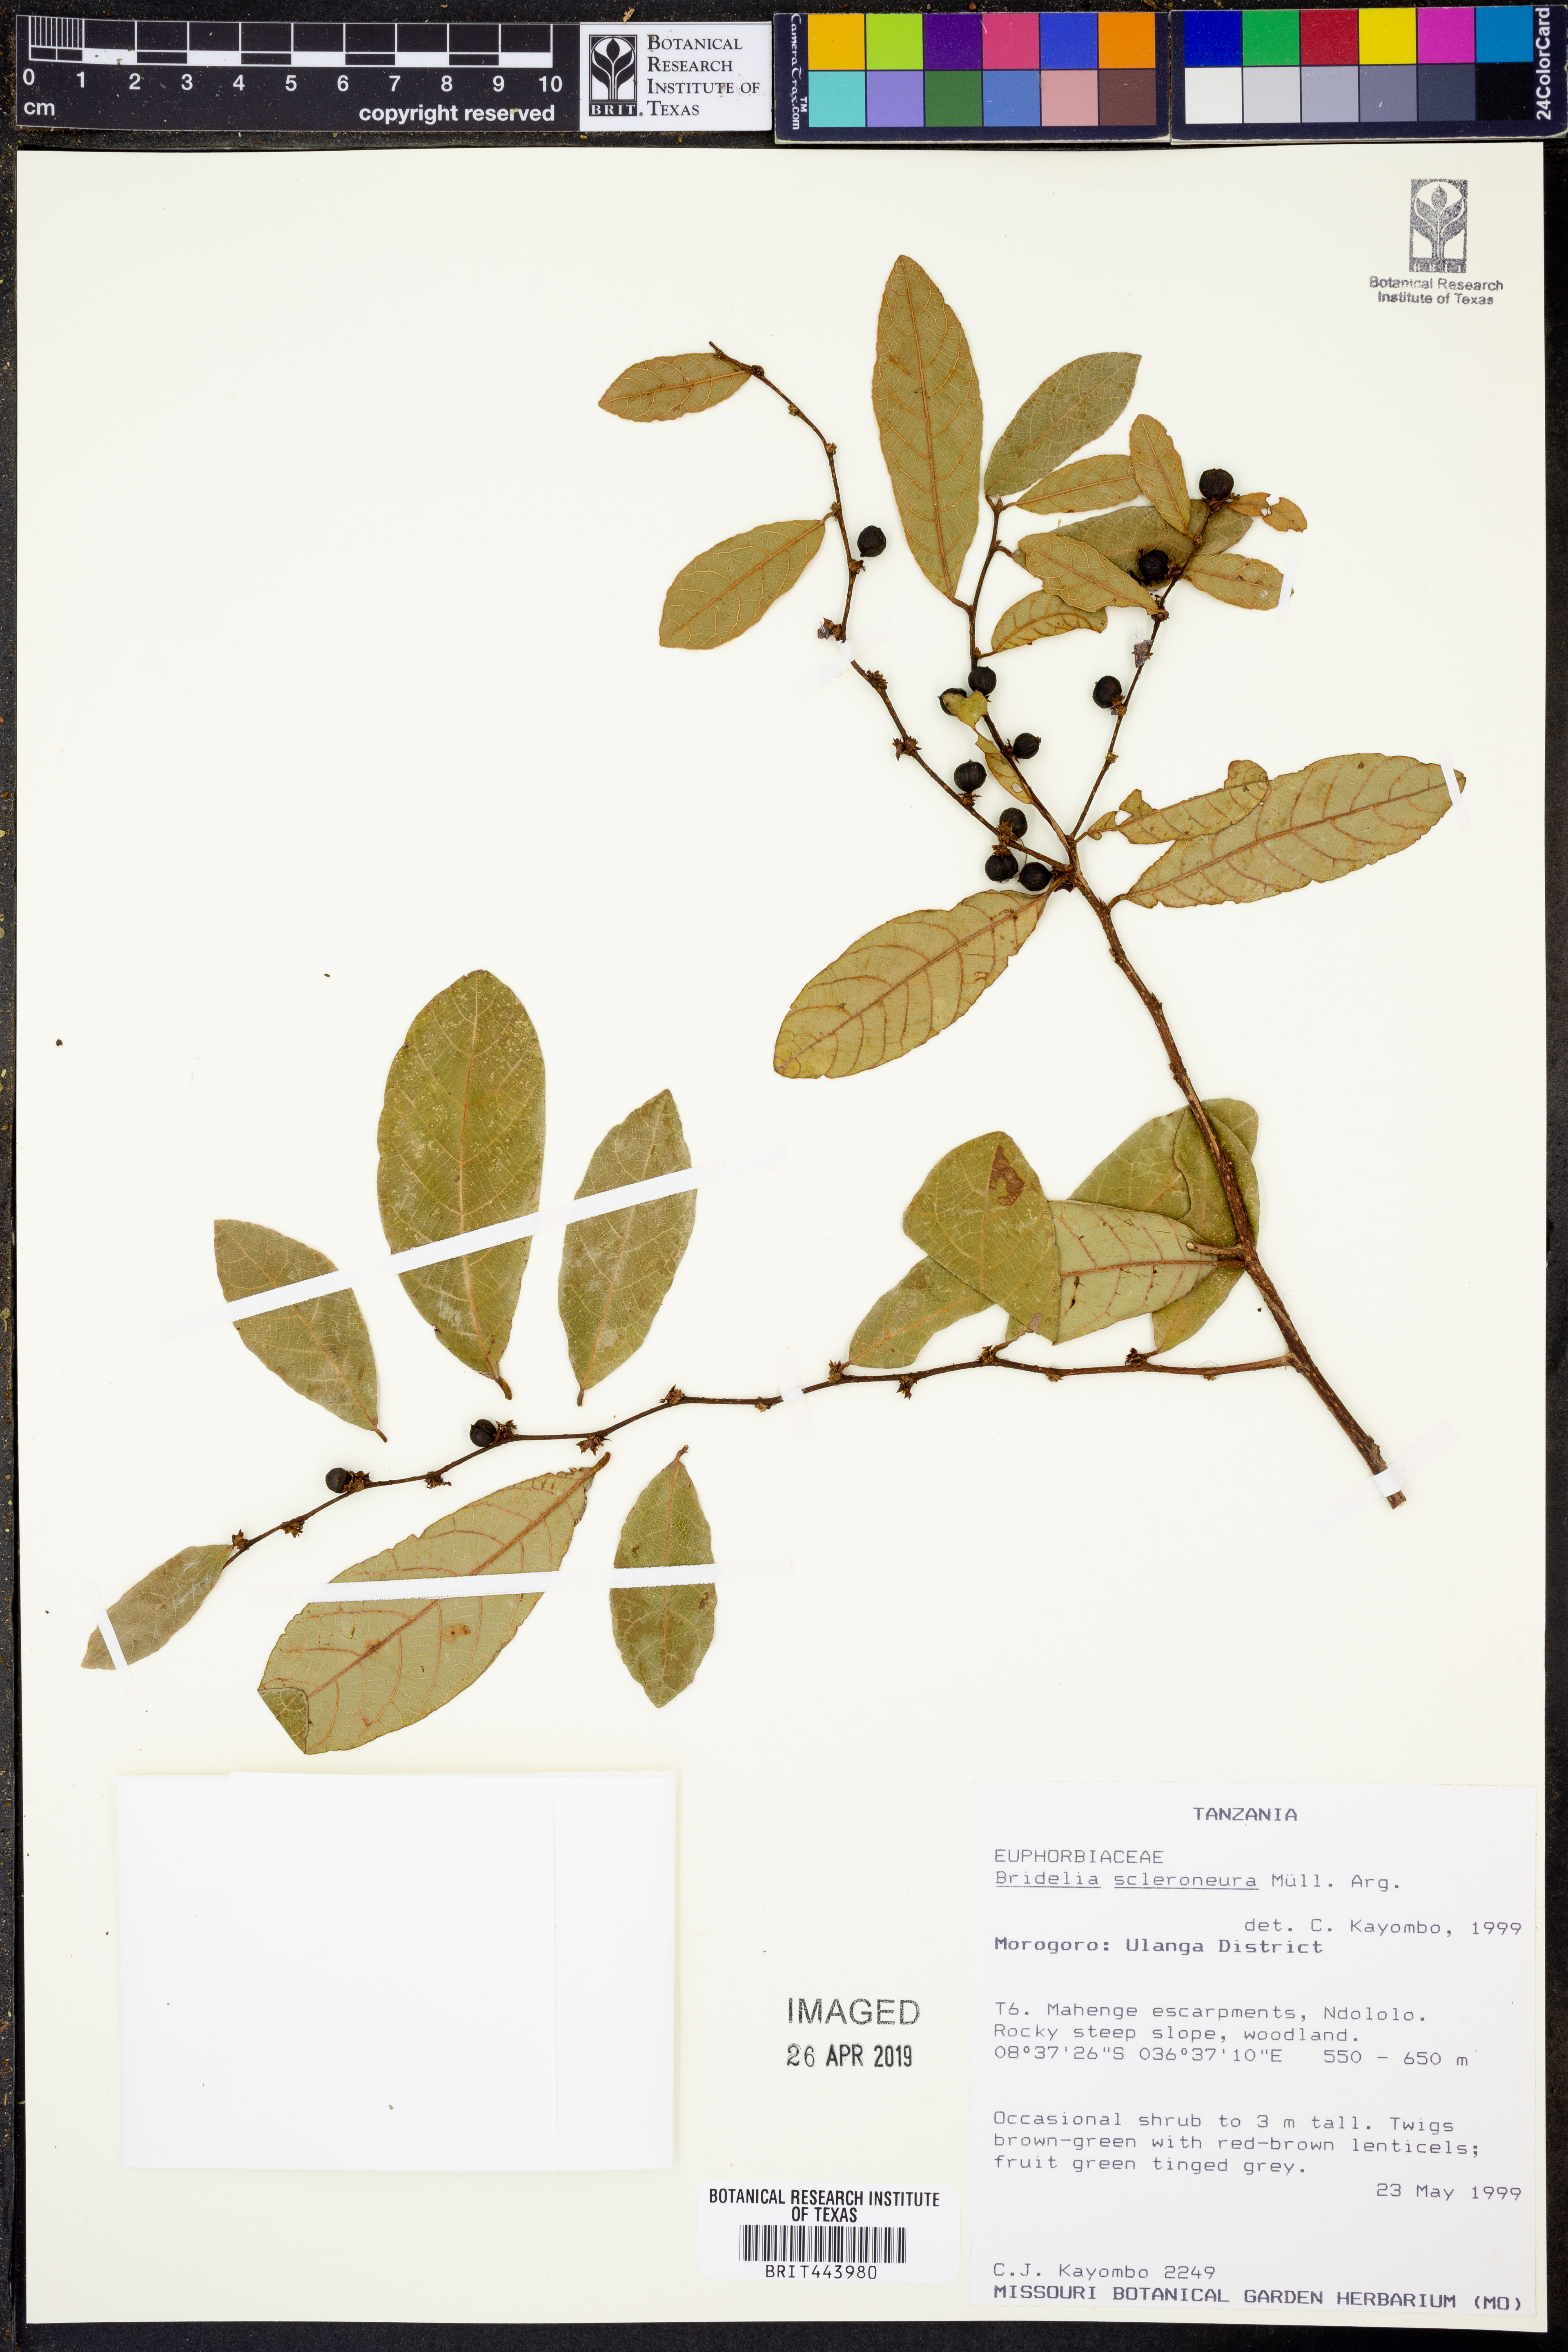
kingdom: Plantae
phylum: Tracheophyta
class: Magnoliopsida
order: Malpighiales
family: Phyllanthaceae
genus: Bridelia
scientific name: Bridelia scleroneura
